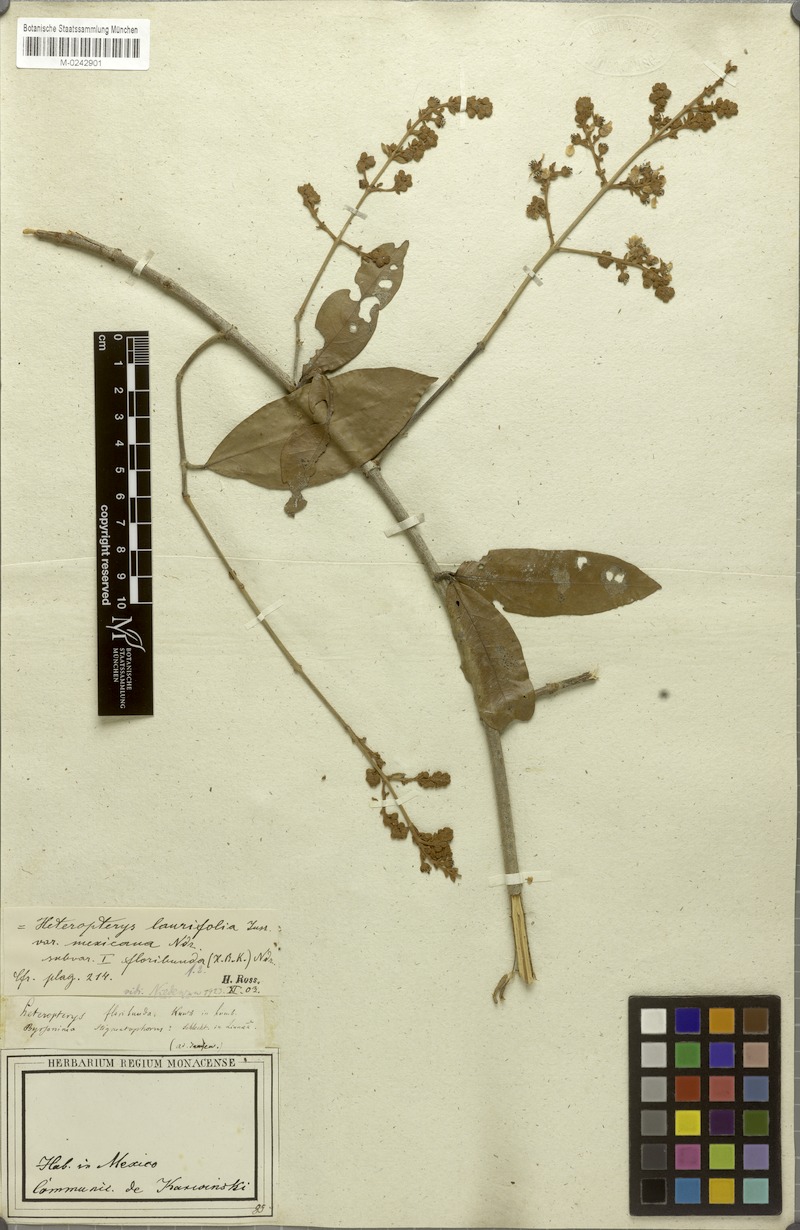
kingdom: Plantae
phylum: Tracheophyta
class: Magnoliopsida
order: Malpighiales
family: Malpighiaceae
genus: Heteropterys
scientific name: Heteropterys laurifolia
